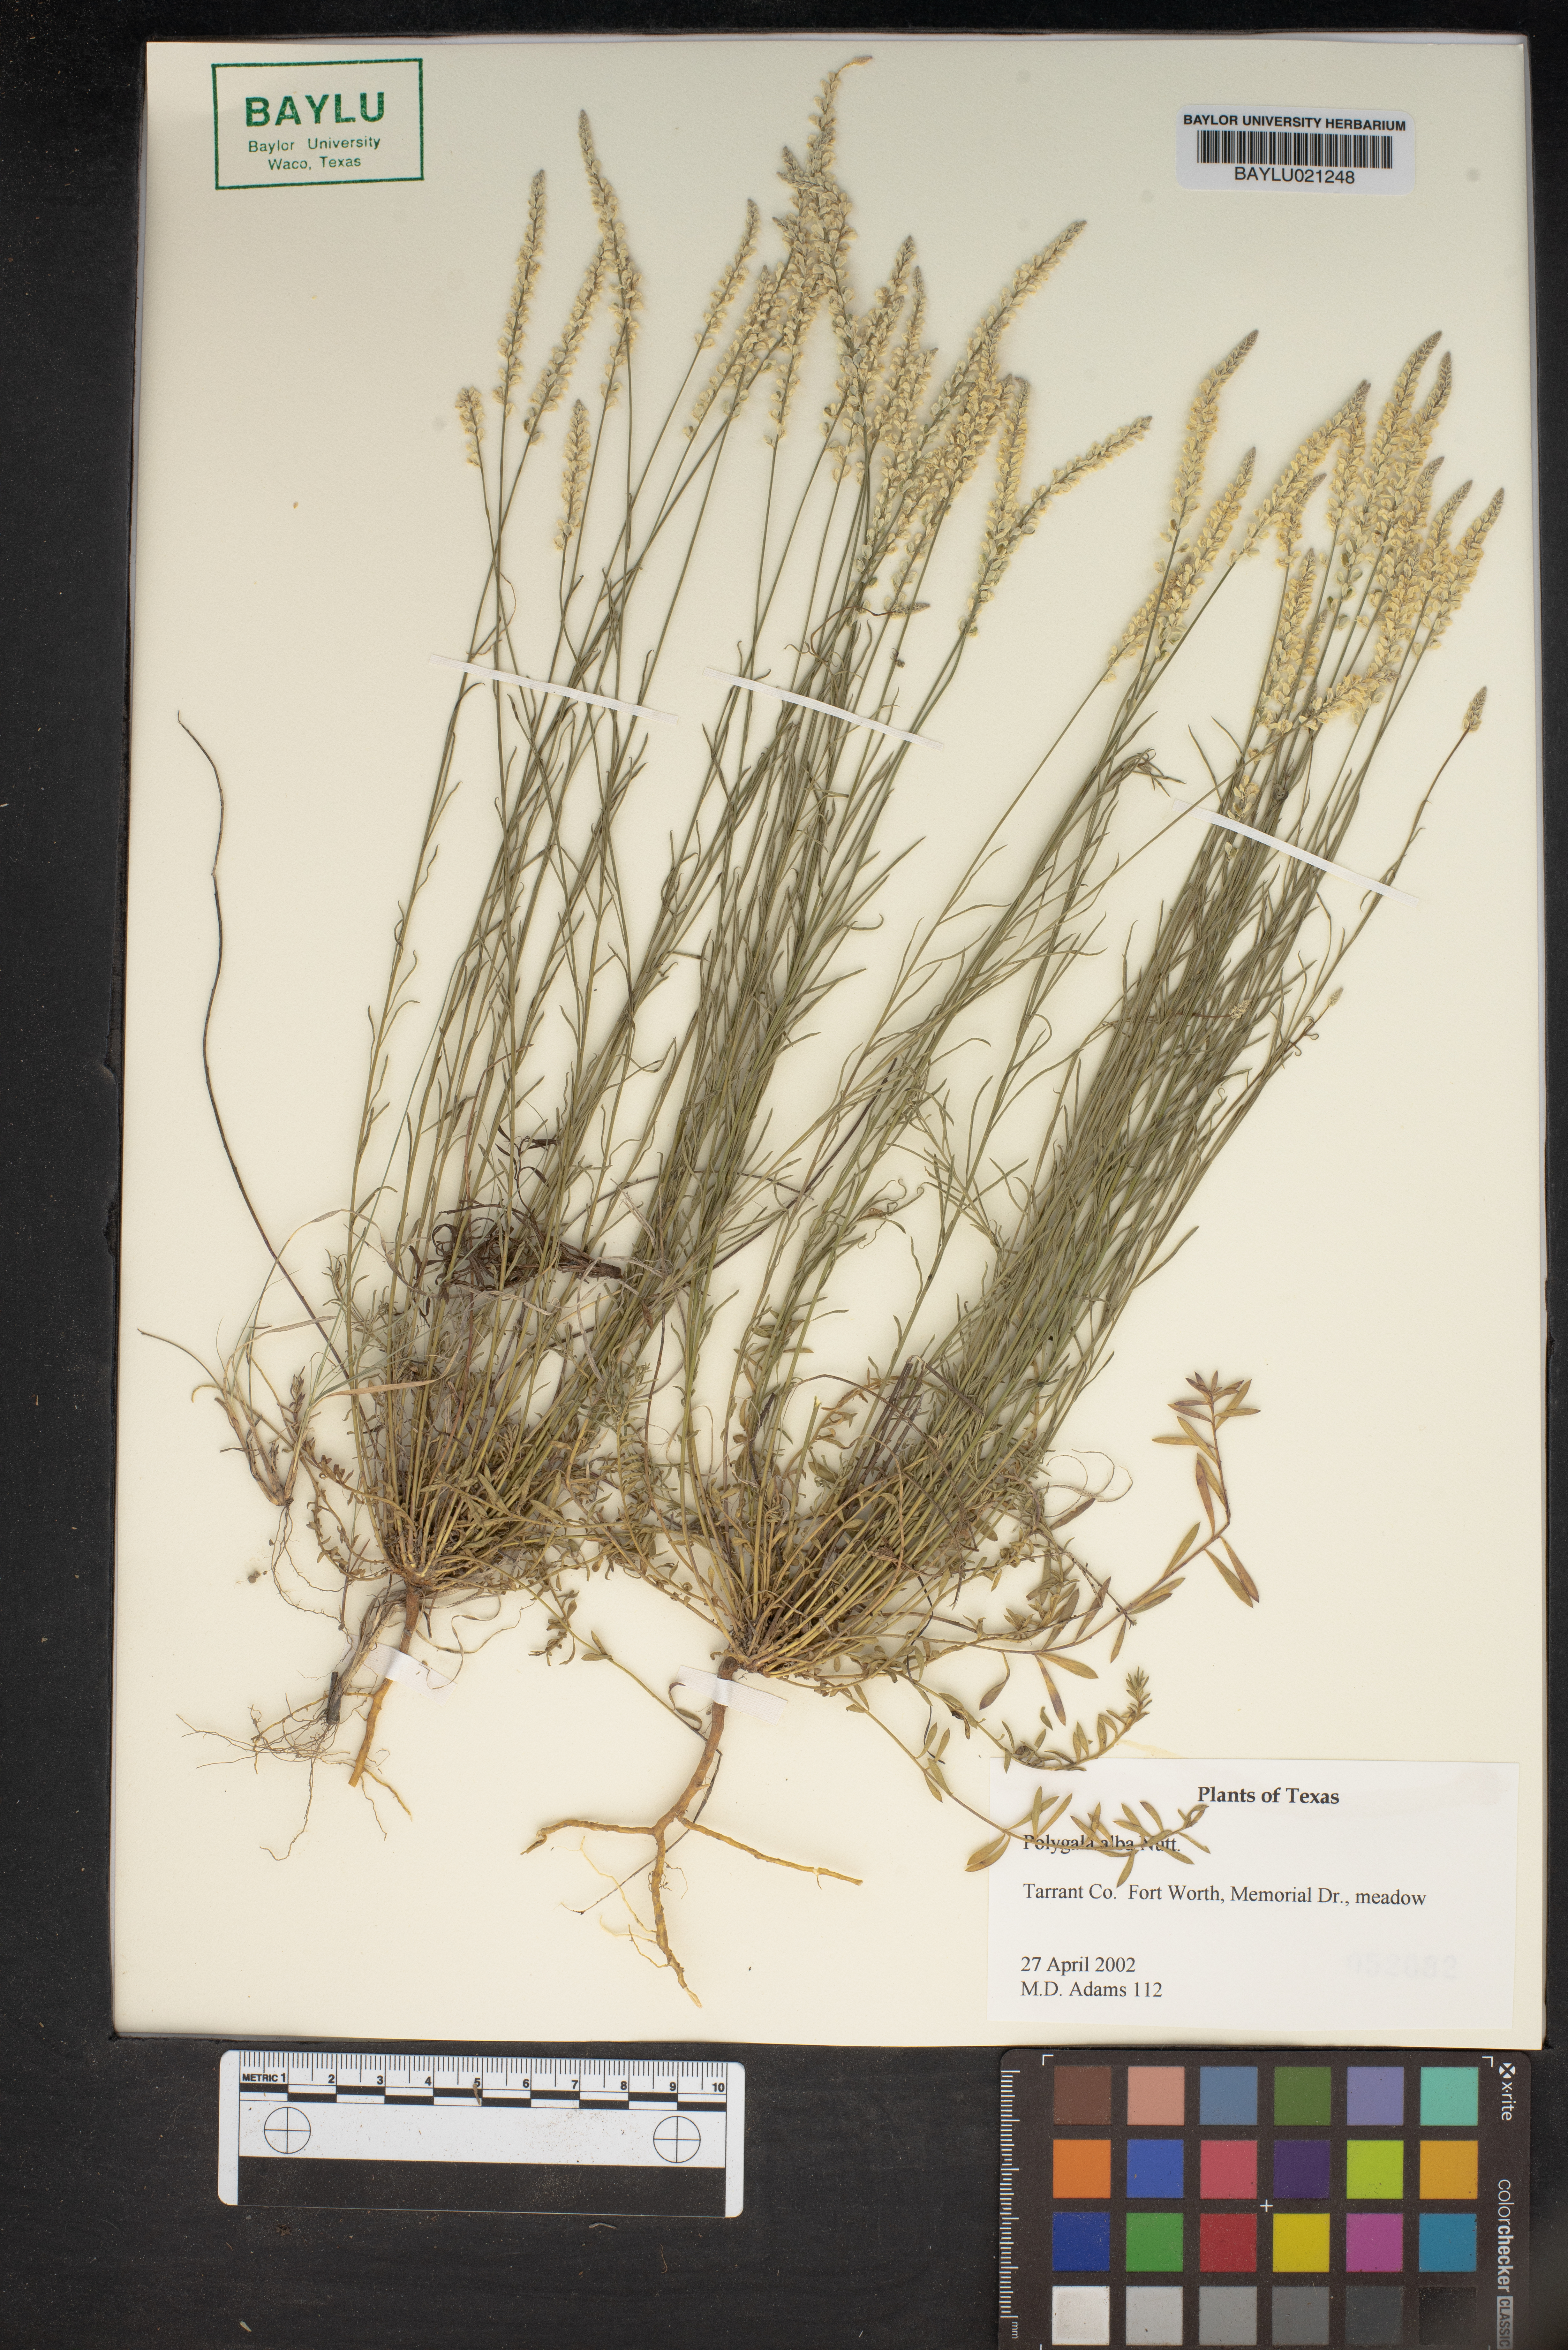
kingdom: Plantae
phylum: Tracheophyta
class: Magnoliopsida
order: Fabales
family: Polygalaceae
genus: Polygala
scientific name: Polygala alba
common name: White milkwort
